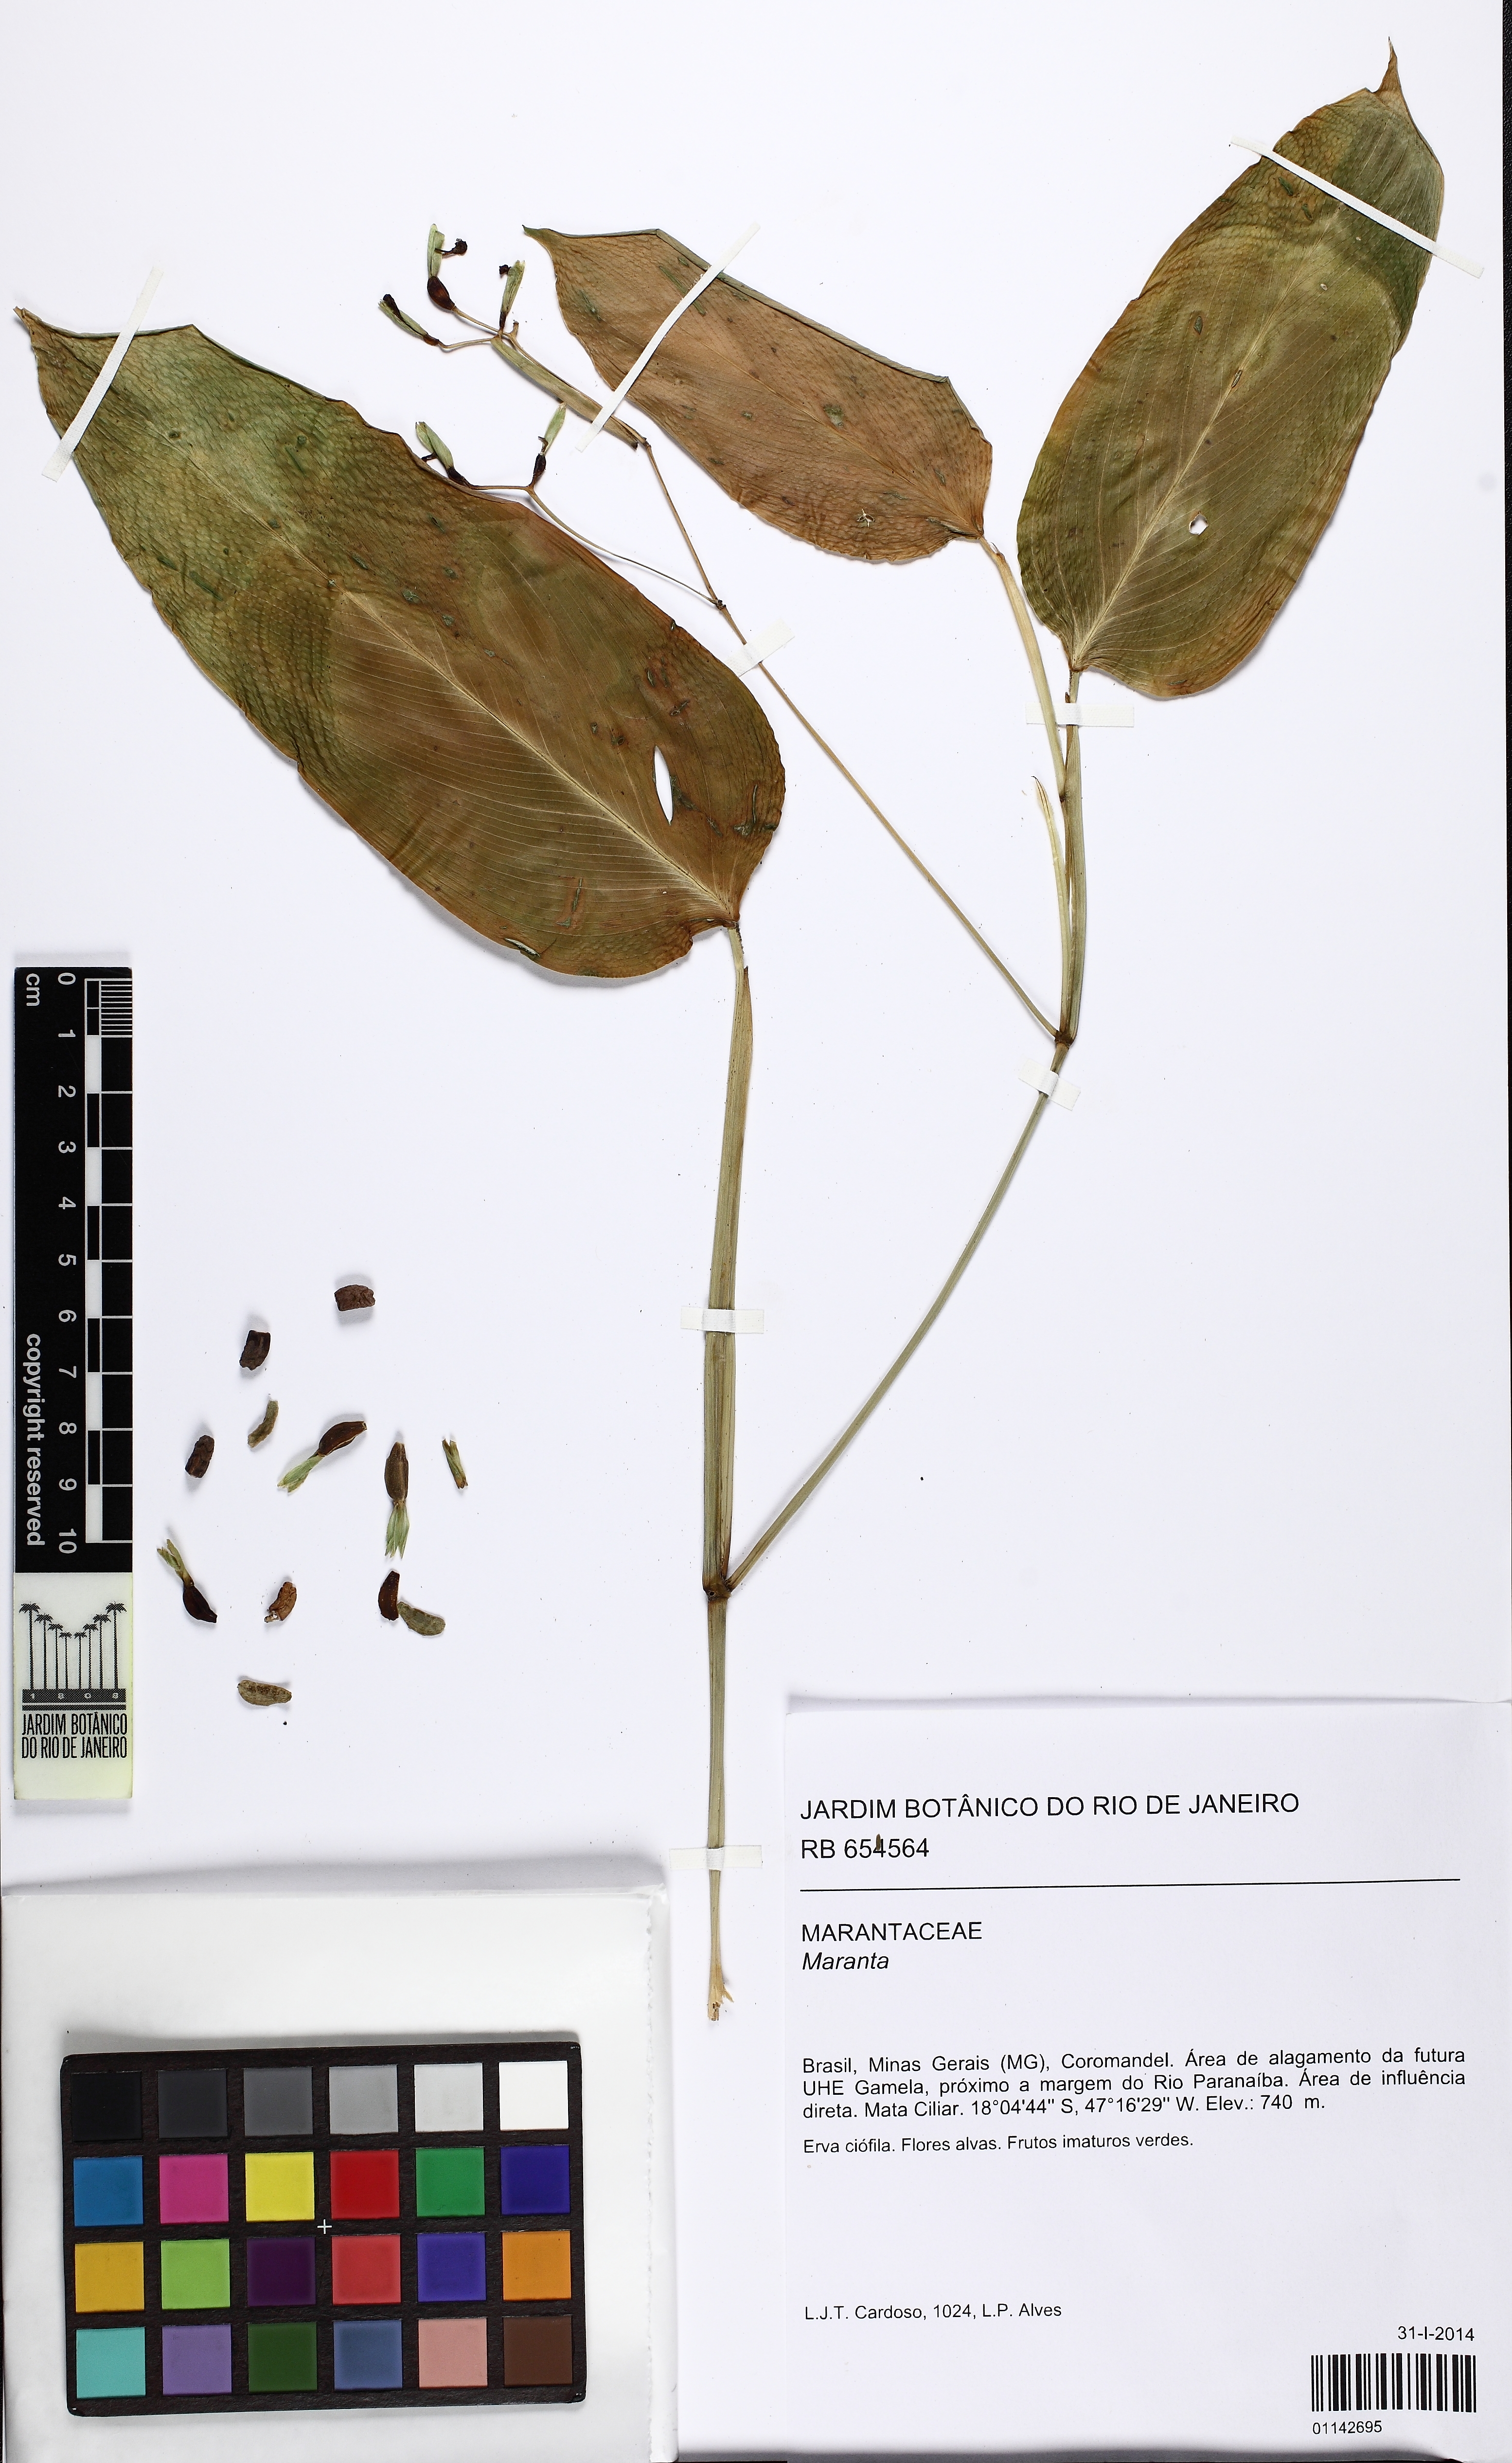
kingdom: Plantae
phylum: Tracheophyta
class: Liliopsida
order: Zingiberales
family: Marantaceae
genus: Maranta
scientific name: Maranta
